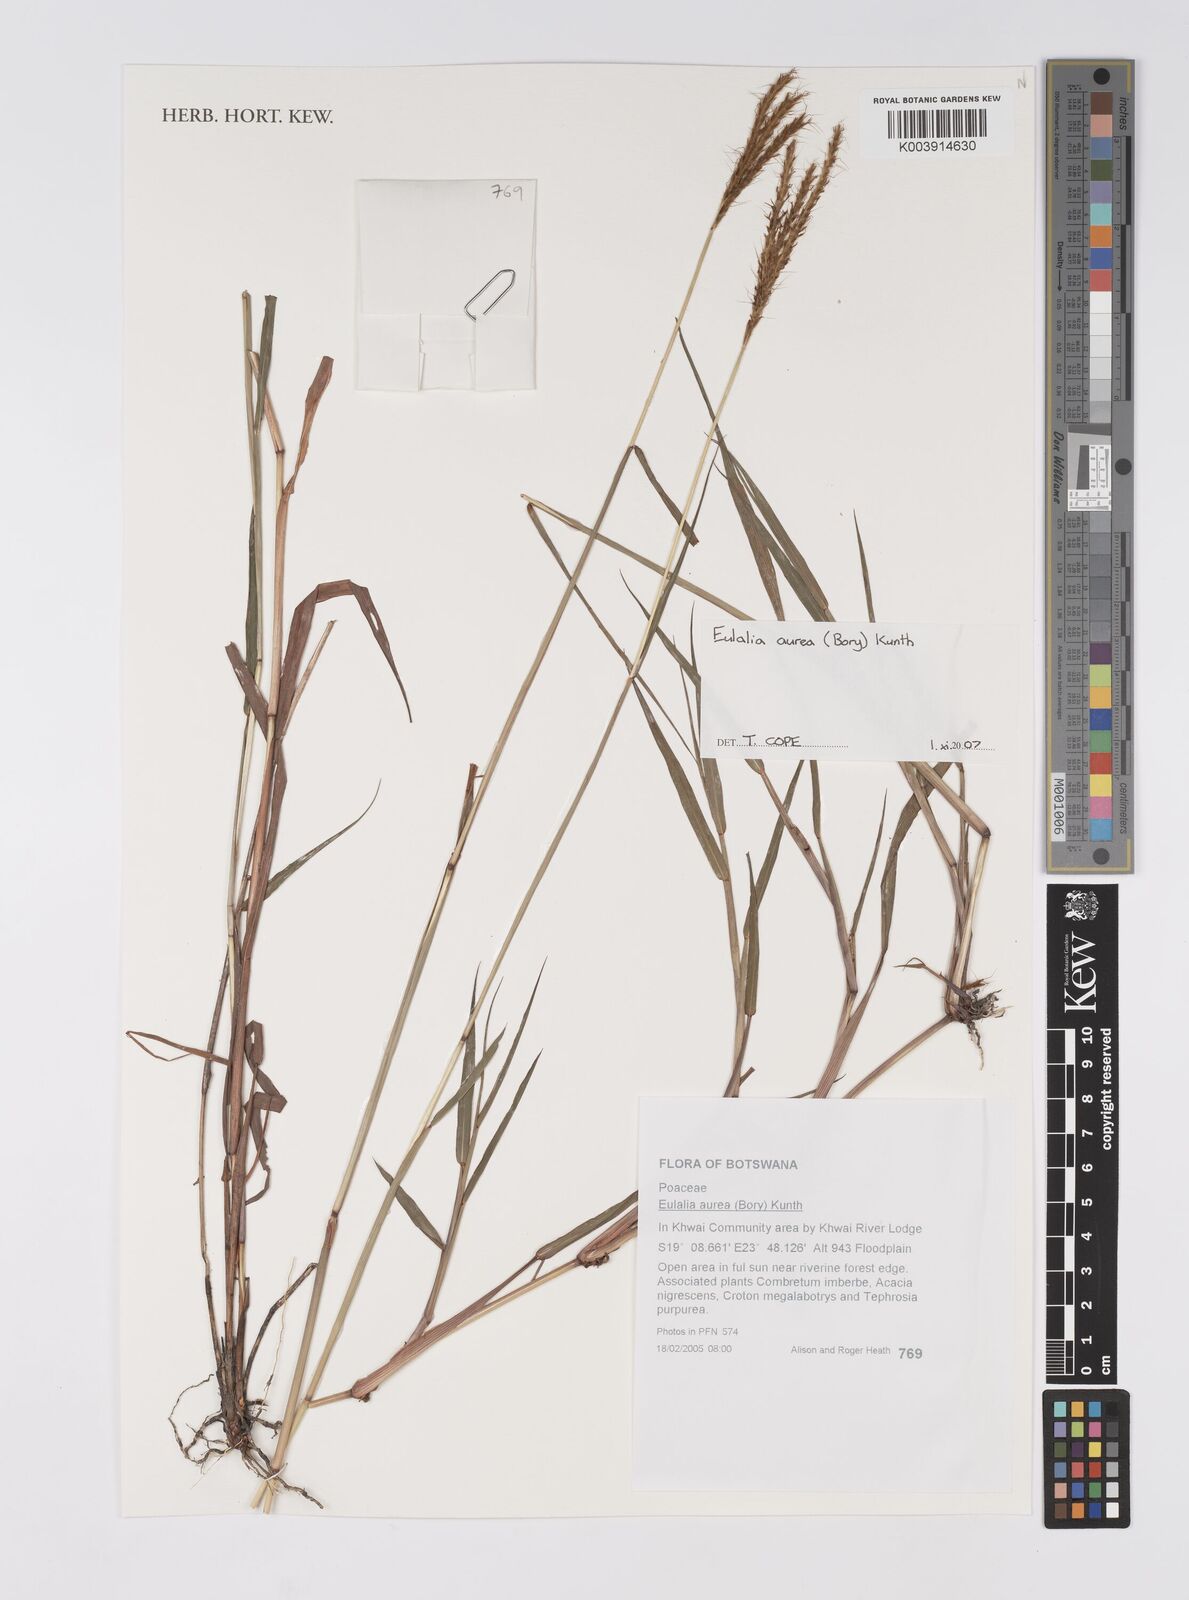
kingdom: Plantae
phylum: Tracheophyta
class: Liliopsida
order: Poales
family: Poaceae
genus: Eulalia
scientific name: Eulalia aurea
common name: Silky browntop
